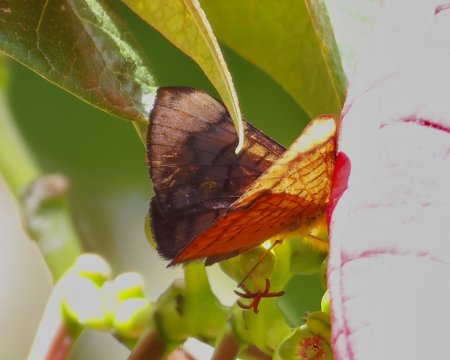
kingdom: Animalia
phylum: Arthropoda
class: Insecta
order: Lepidoptera
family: Lycaenidae
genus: Emesis
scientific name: Emesis lucinda
